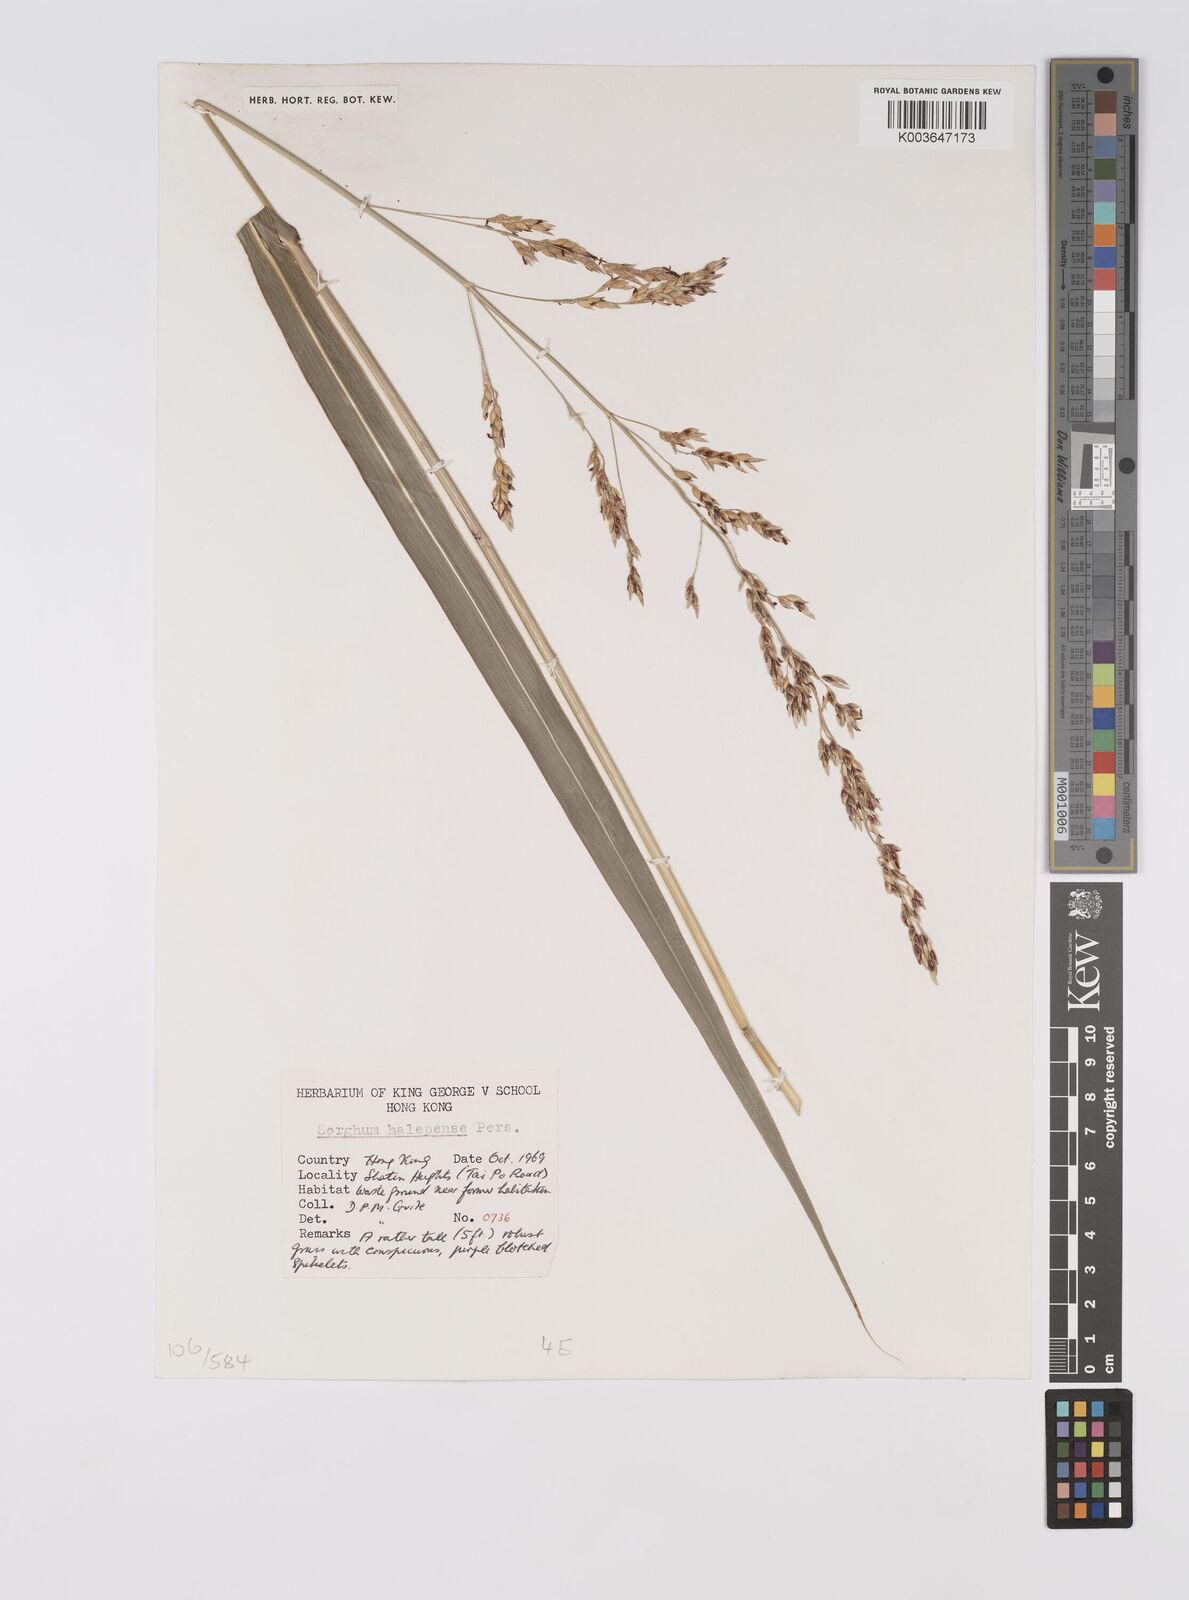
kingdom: Plantae
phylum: Tracheophyta
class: Liliopsida
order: Poales
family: Poaceae
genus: Sorghum
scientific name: Sorghum halepense
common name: Johnson-grass
